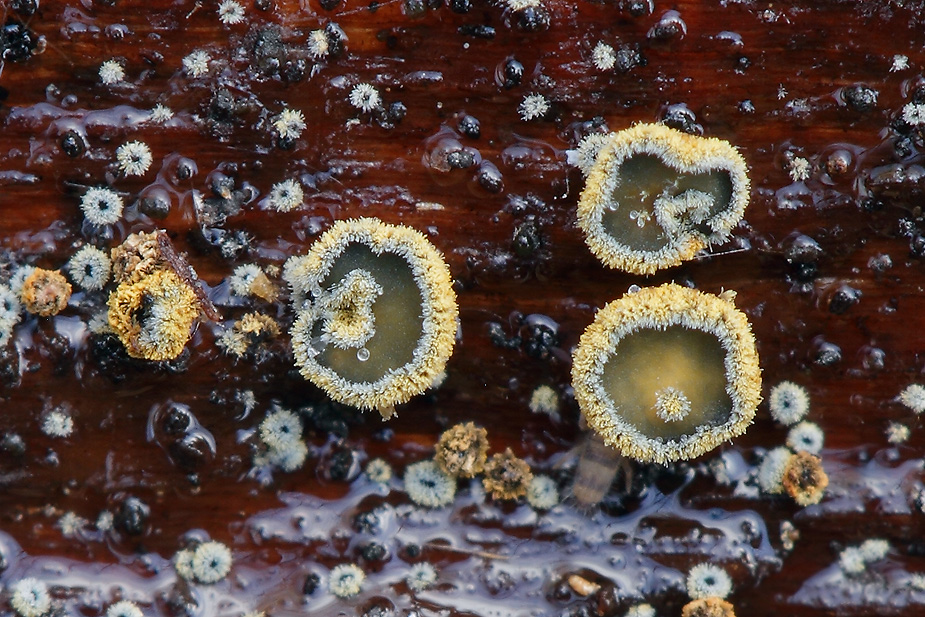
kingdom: Fungi
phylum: Ascomycota
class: Leotiomycetes
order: Helotiales
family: Lachnaceae
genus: Neodasyscypha
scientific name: Neodasyscypha cerina
